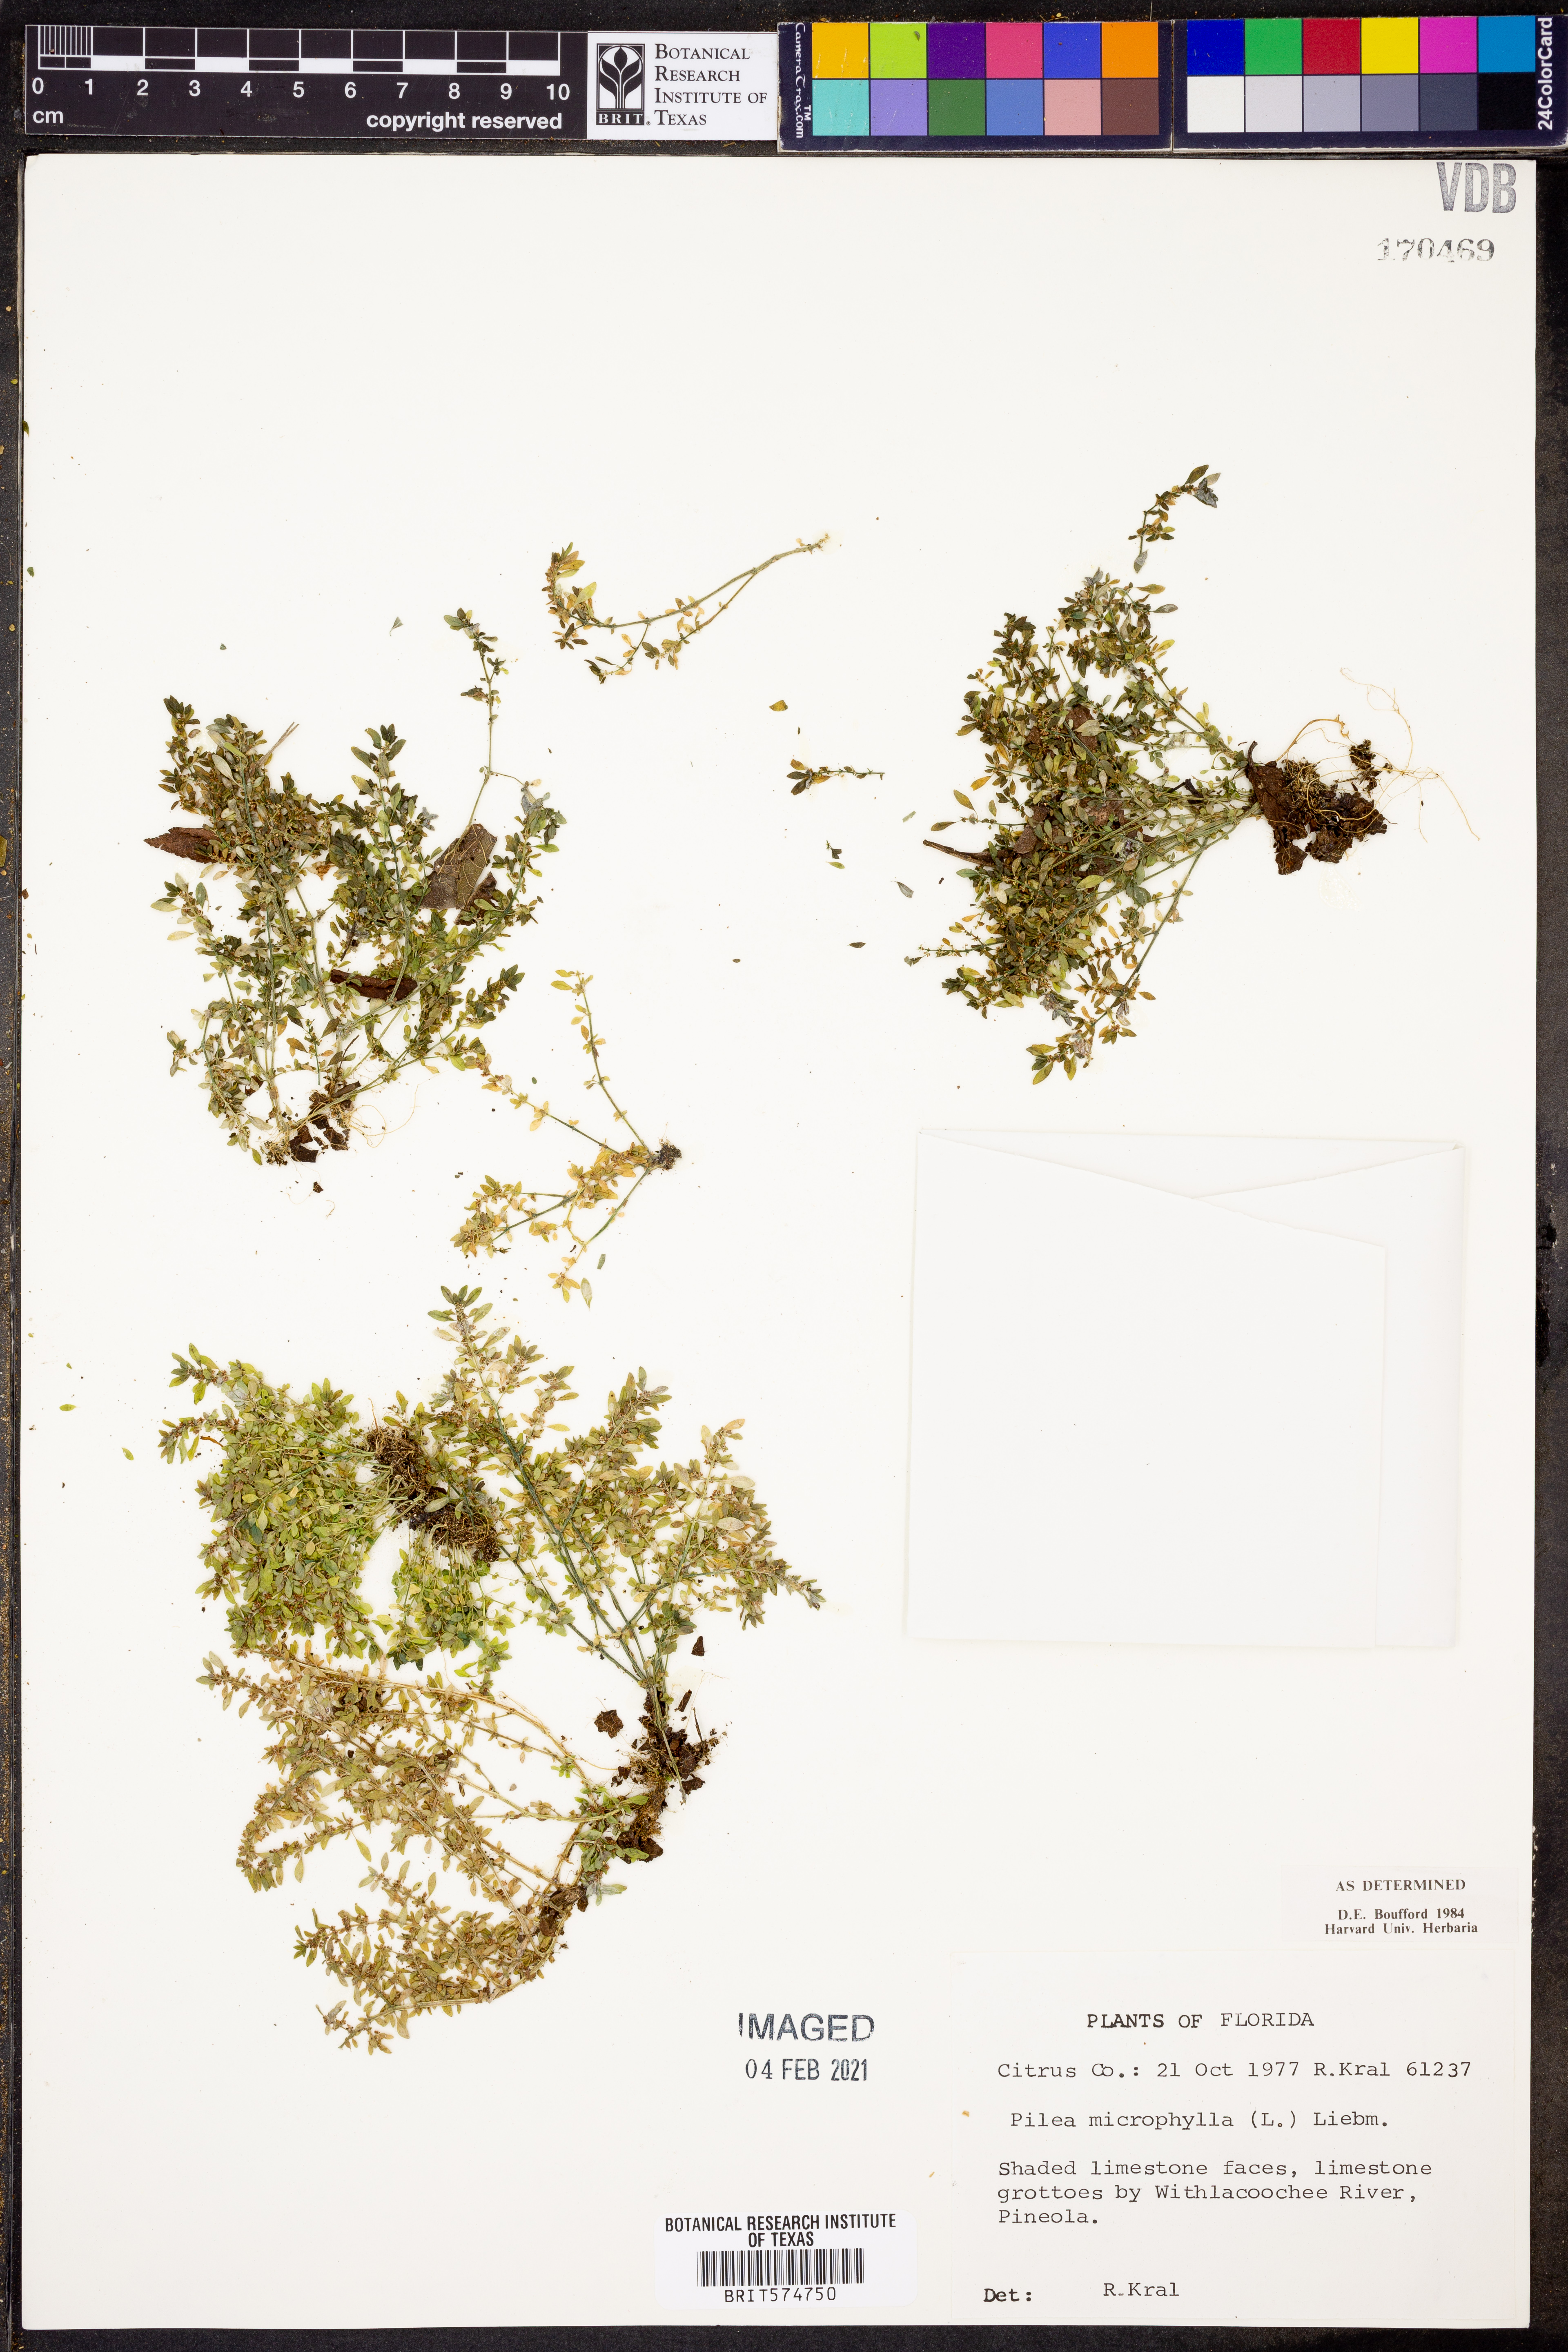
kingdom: Plantae
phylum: Tracheophyta
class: Magnoliopsida
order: Rosales
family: Urticaceae
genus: Pilea
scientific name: Pilea microphylla
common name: Artillery-plant
